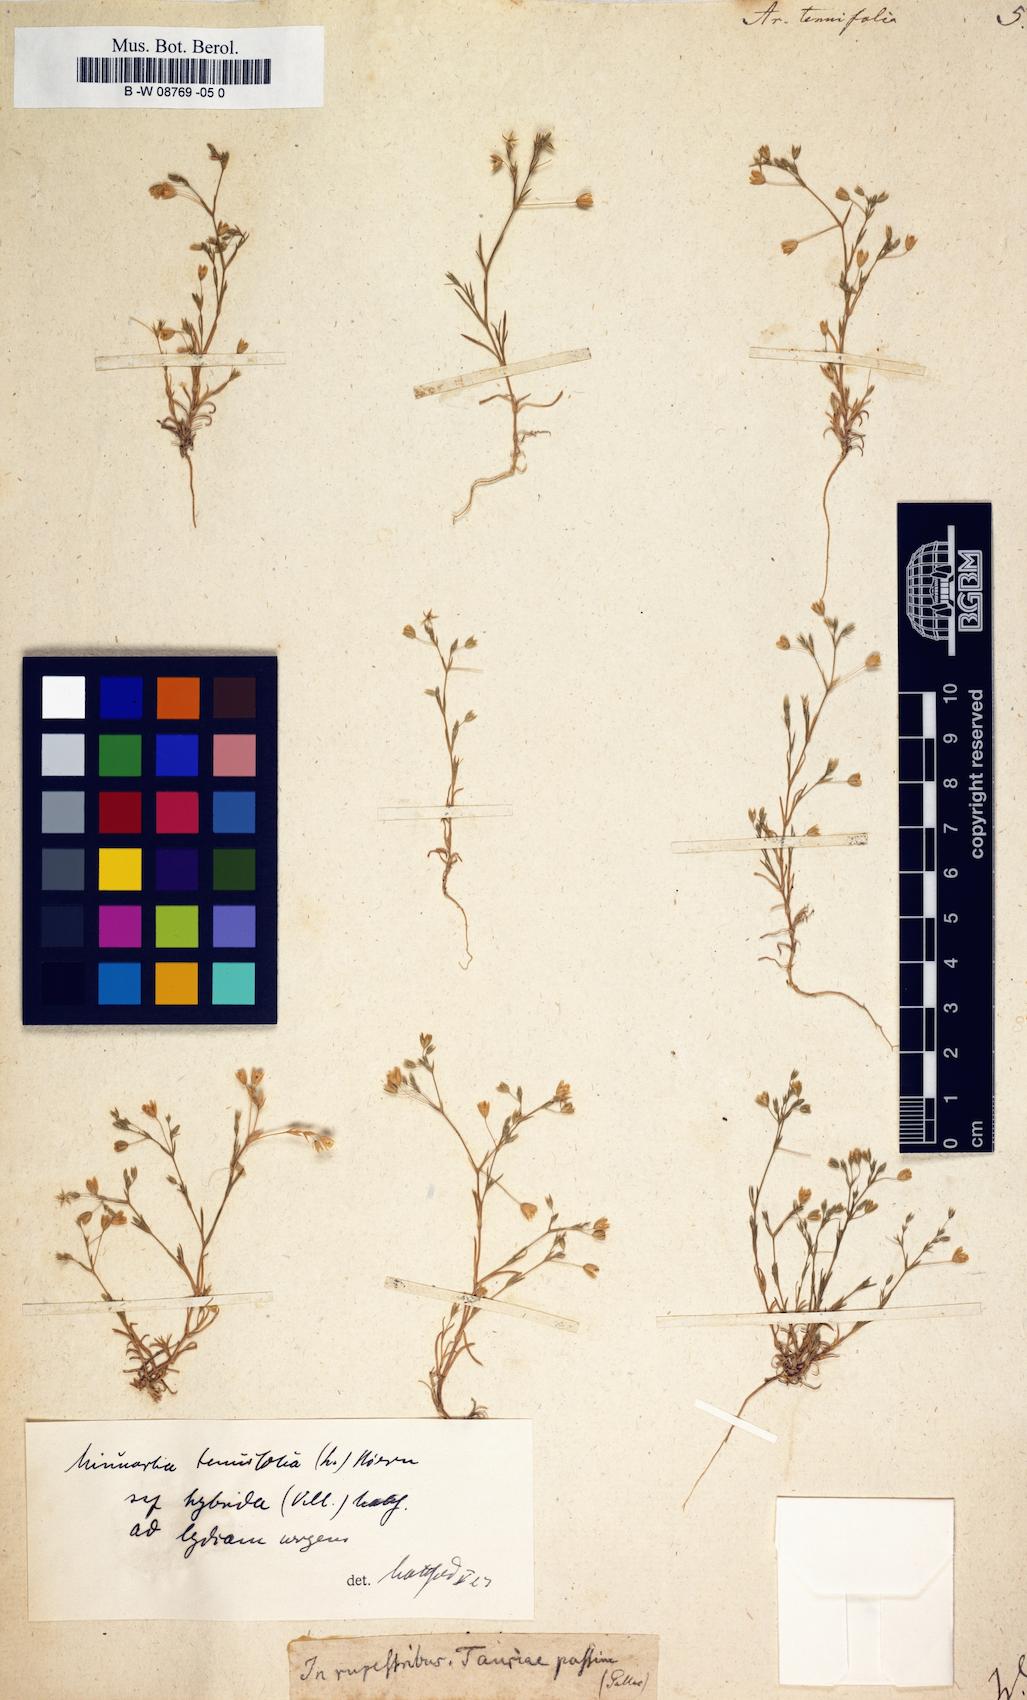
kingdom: Plantae
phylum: Tracheophyta
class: Magnoliopsida
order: Caryophyllales
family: Caryophyllaceae
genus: Sabulina
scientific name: Sabulina tenuifolia
